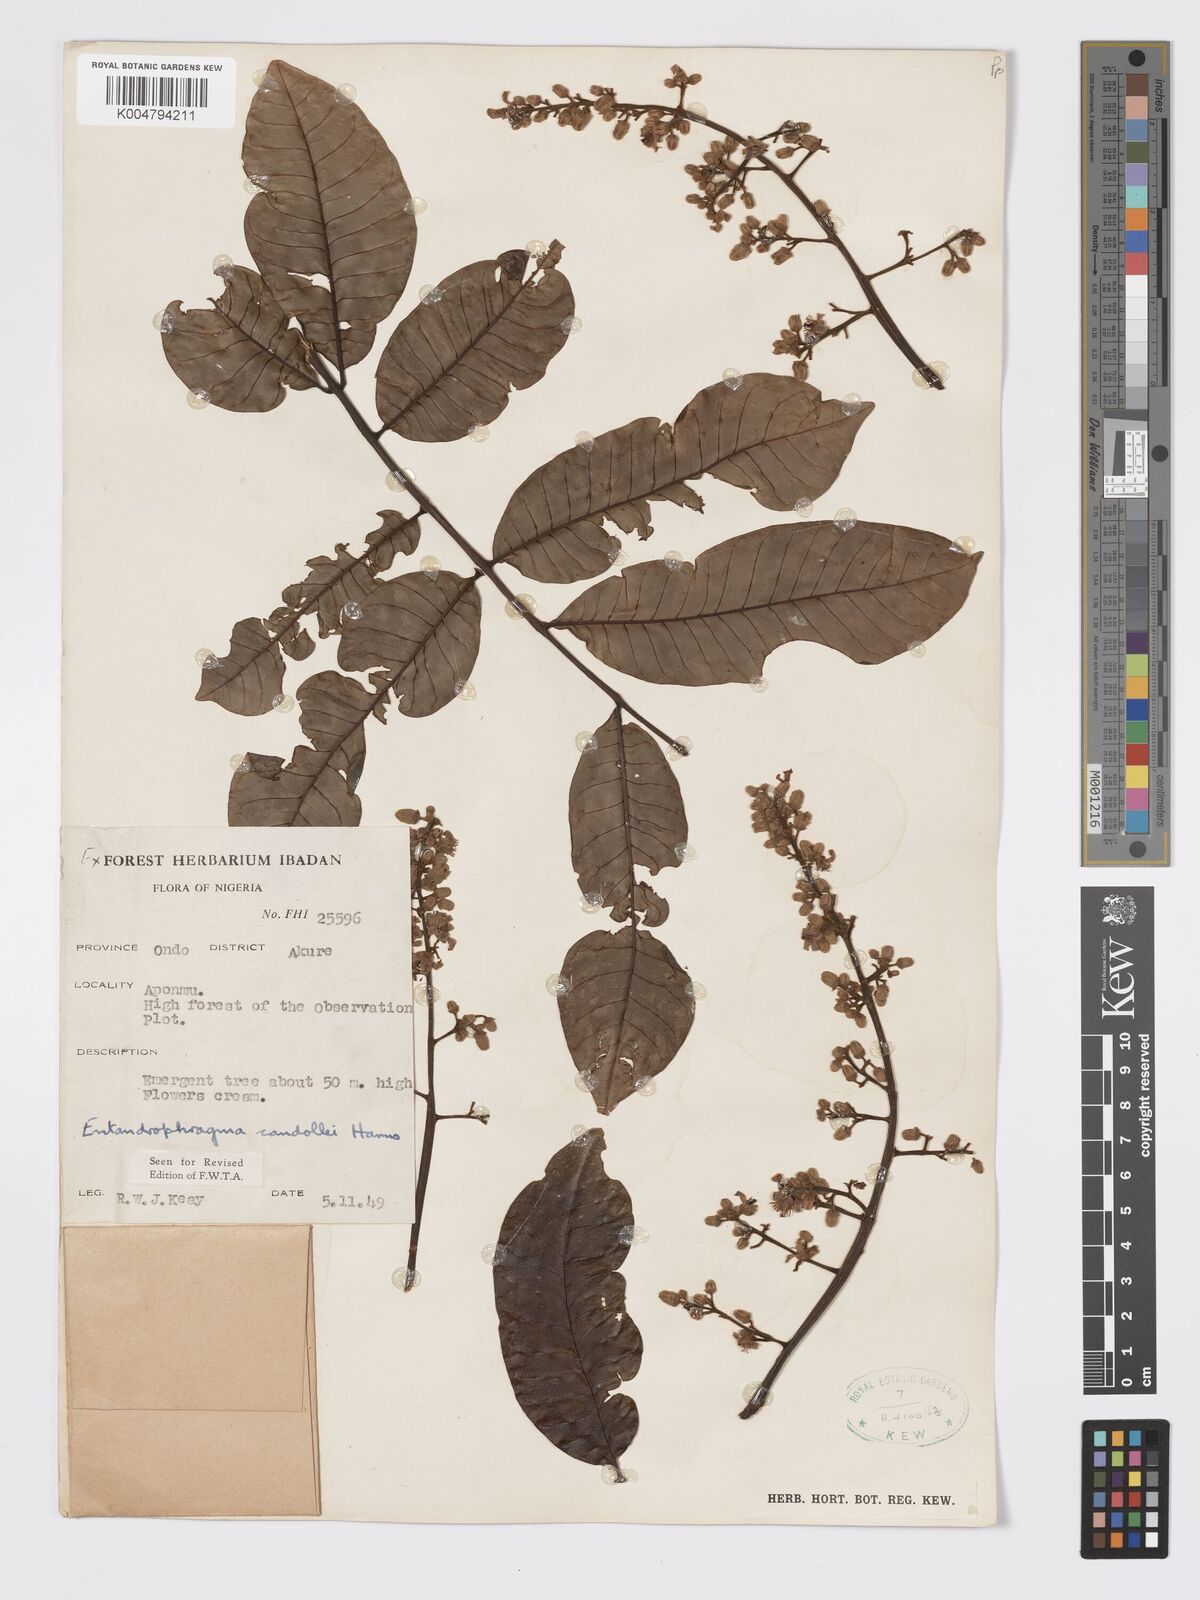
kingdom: Plantae
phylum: Tracheophyta
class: Magnoliopsida
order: Sapindales
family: Meliaceae
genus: Entandrophragma
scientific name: Entandrophragma candollei
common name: Cedar kokoti
